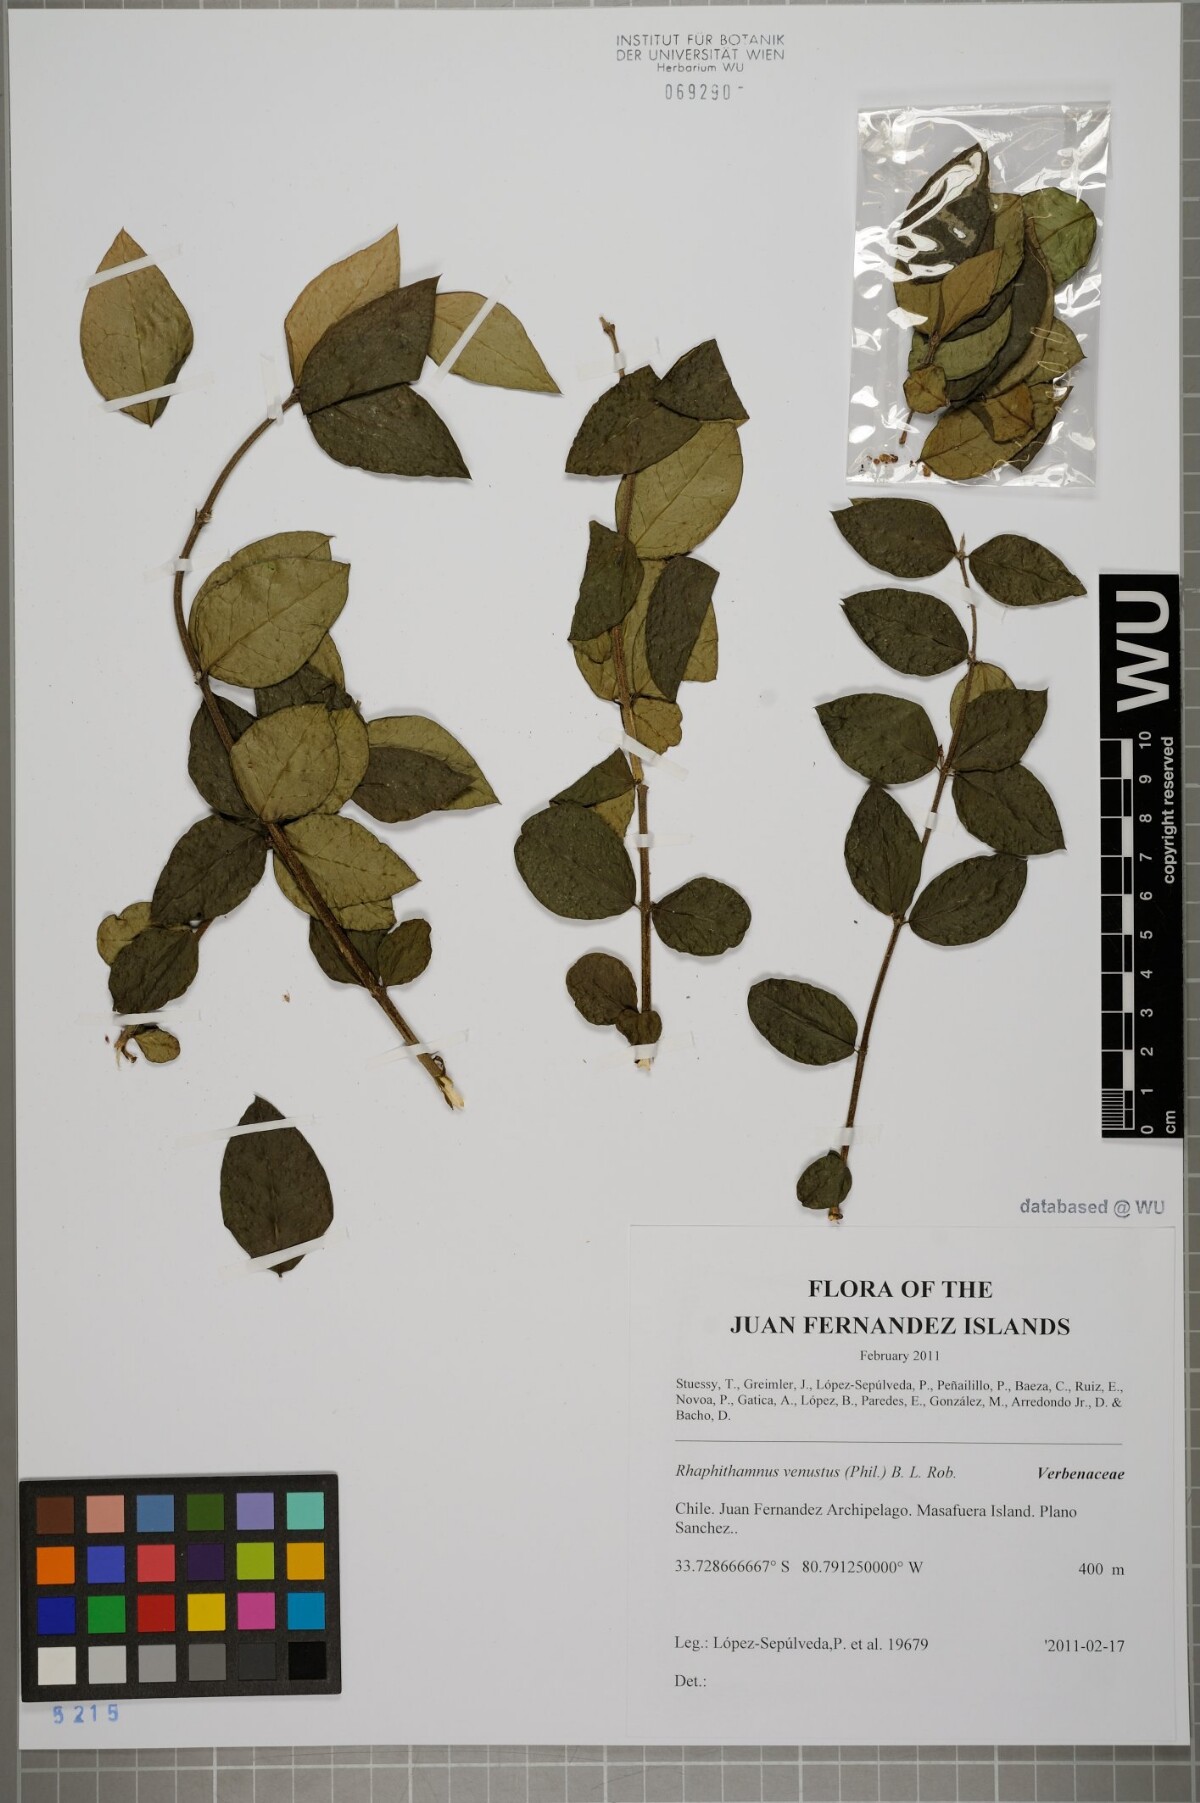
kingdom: Plantae
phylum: Tracheophyta
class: Magnoliopsida
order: Lamiales
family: Verbenaceae
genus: Rhaphithamnus
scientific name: Rhaphithamnus venustus
